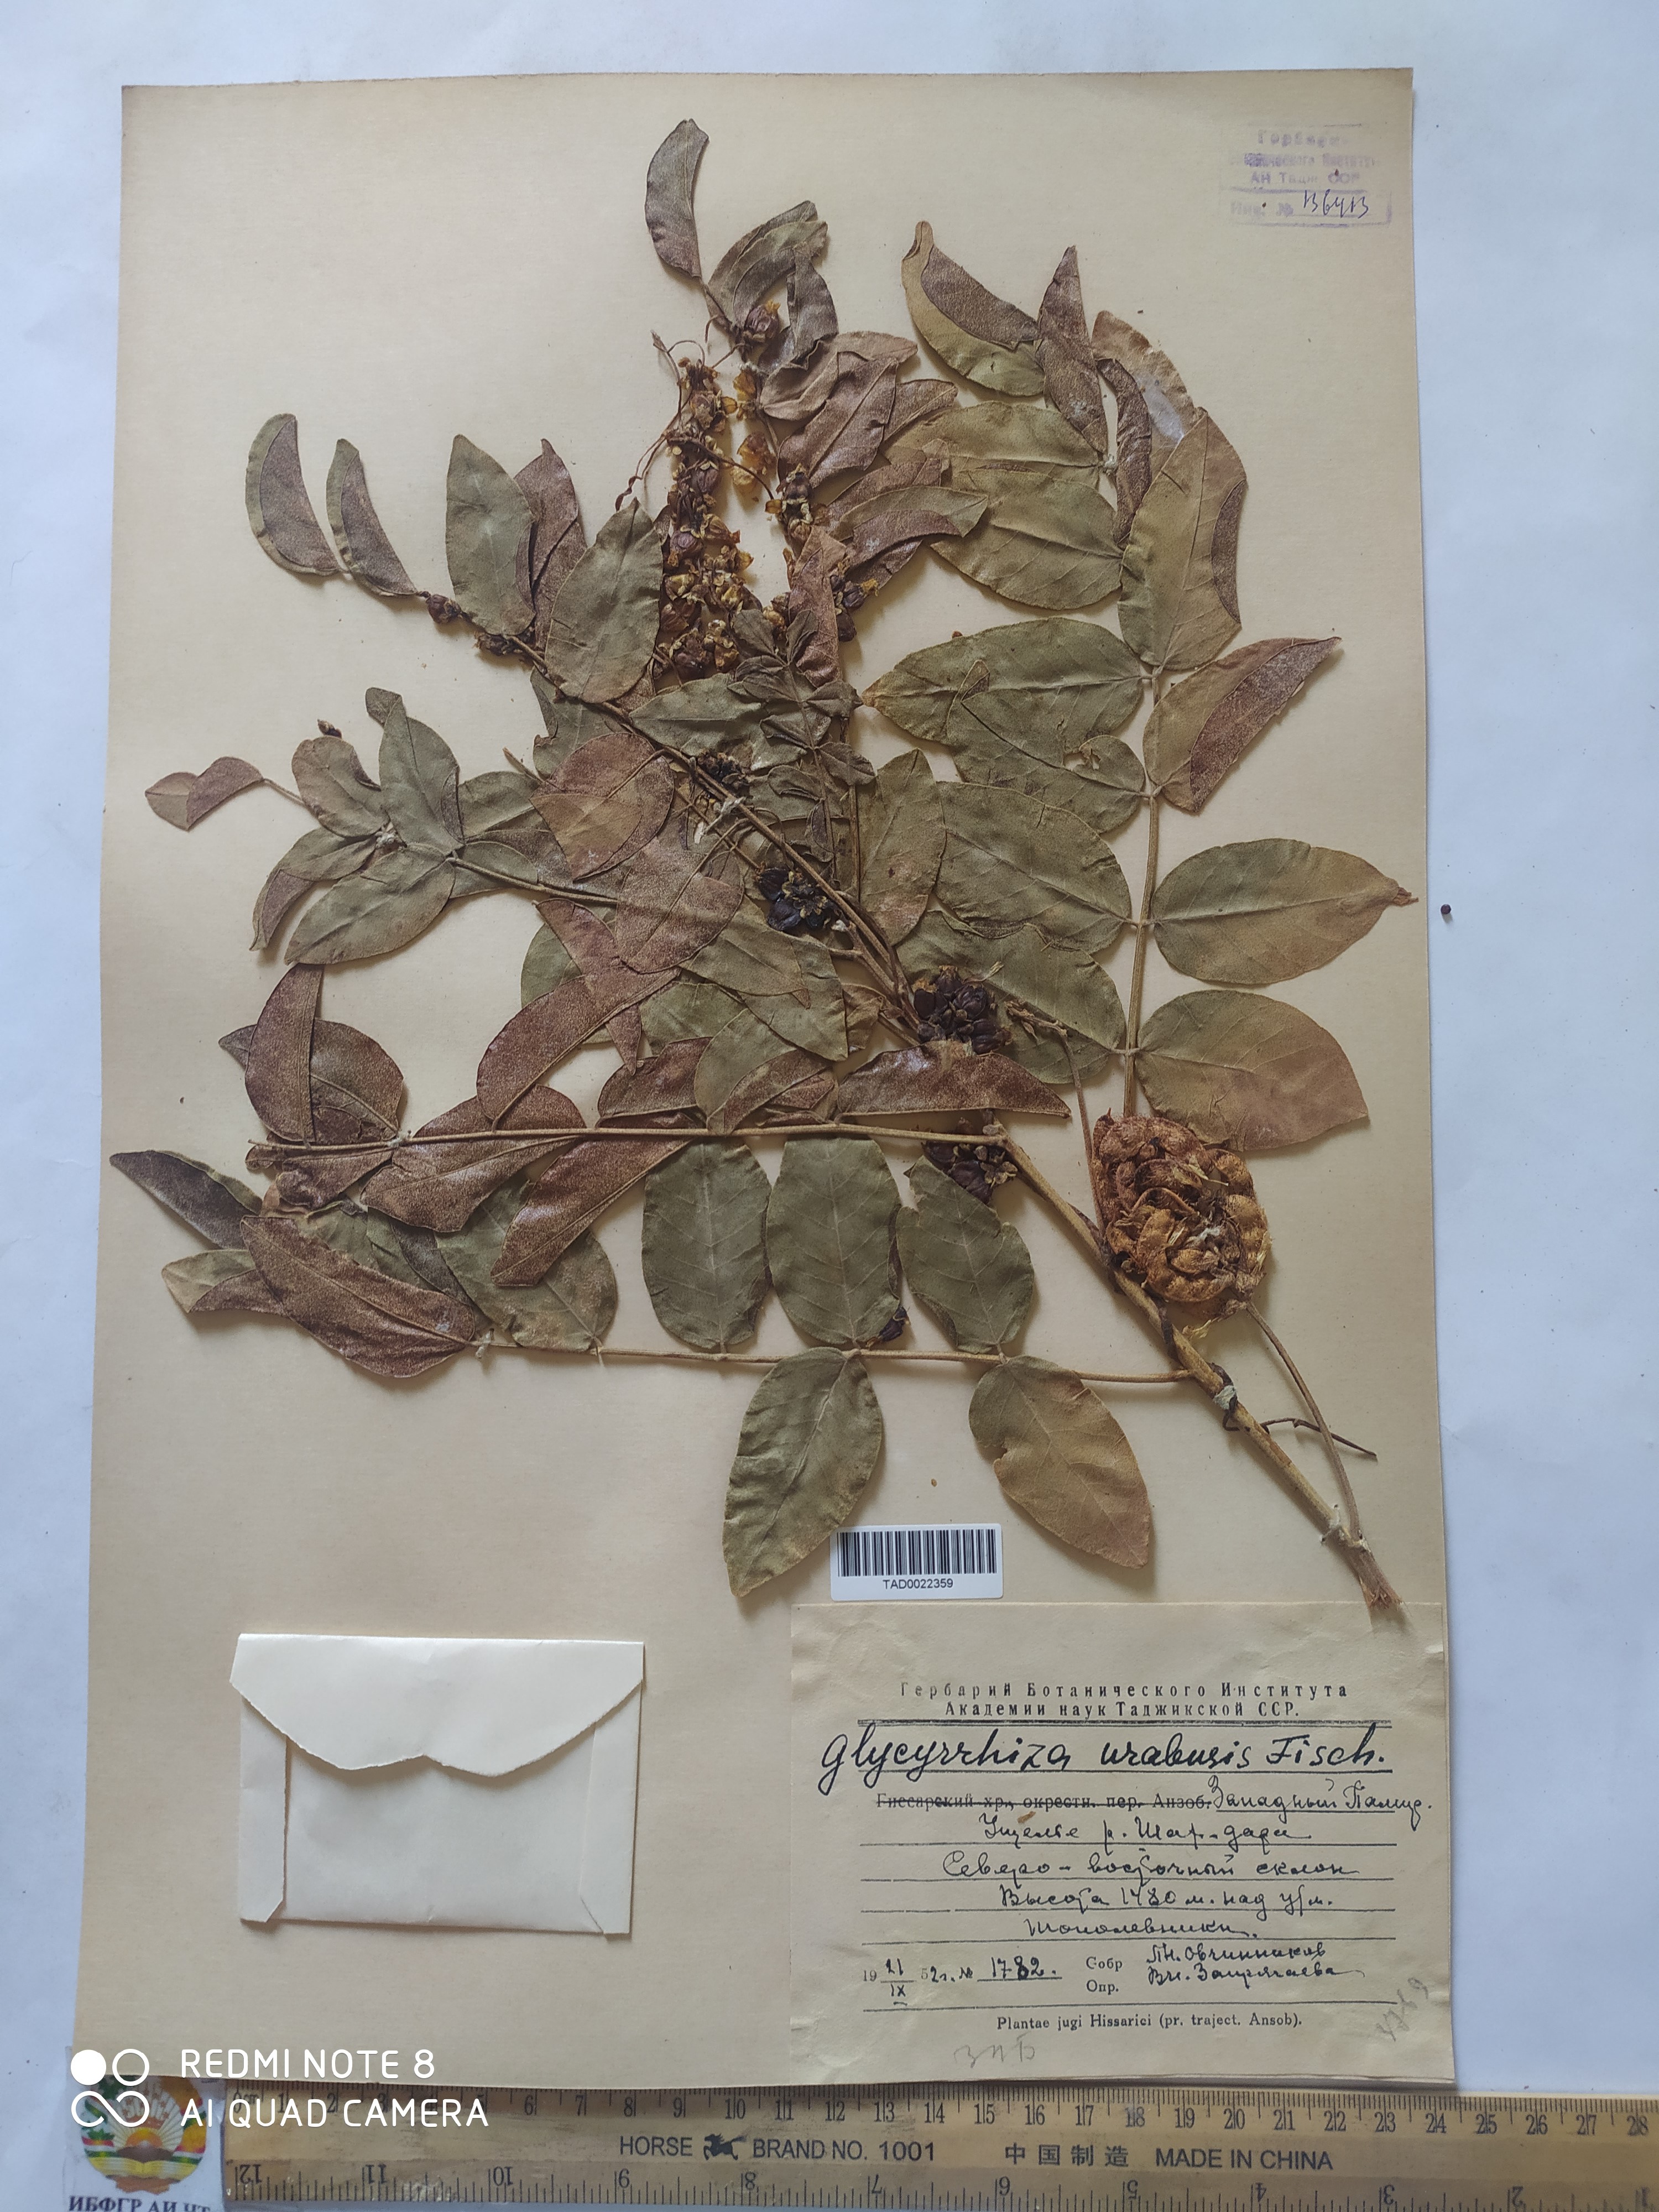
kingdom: Plantae
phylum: Tracheophyta
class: Magnoliopsida
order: Fabales
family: Fabaceae
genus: Glycyrrhiza
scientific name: Glycyrrhiza uralensis
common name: Chinese licorice
